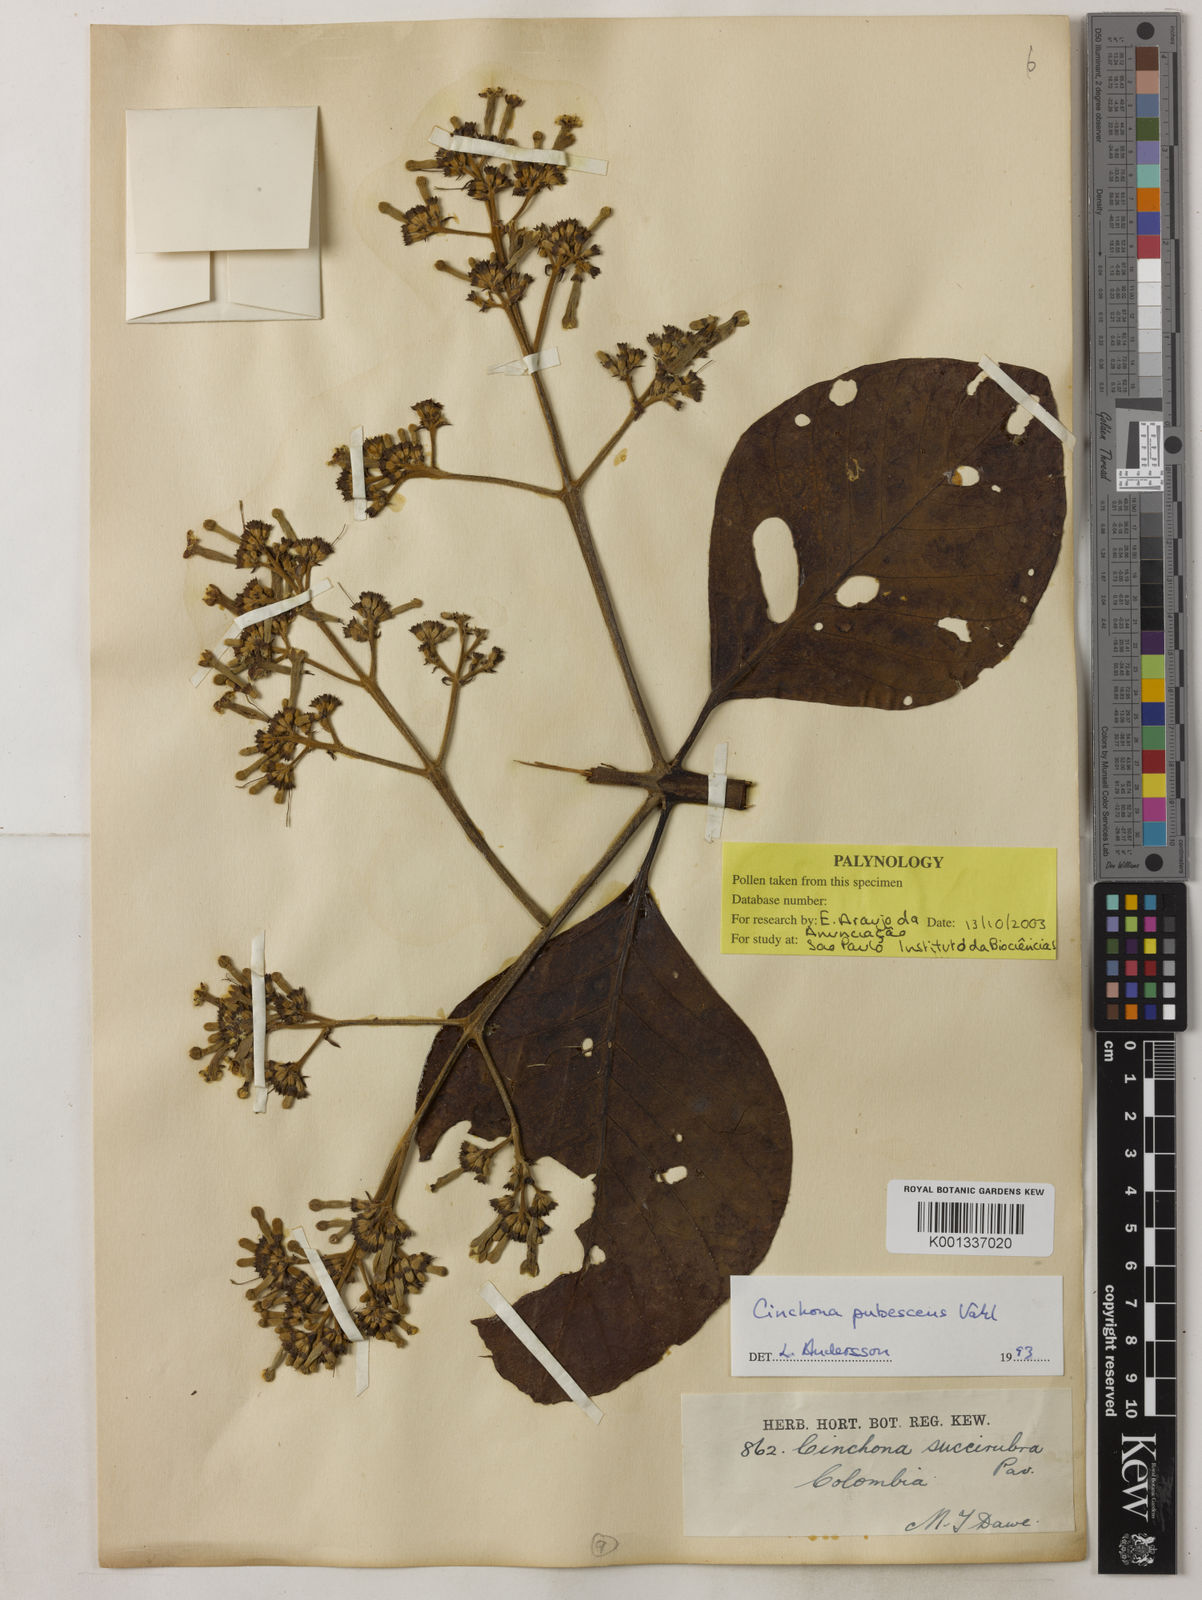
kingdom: Plantae
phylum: Tracheophyta
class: Magnoliopsida
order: Gentianales
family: Rubiaceae
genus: Cinchona
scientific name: Cinchona pubescens
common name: Quinine
